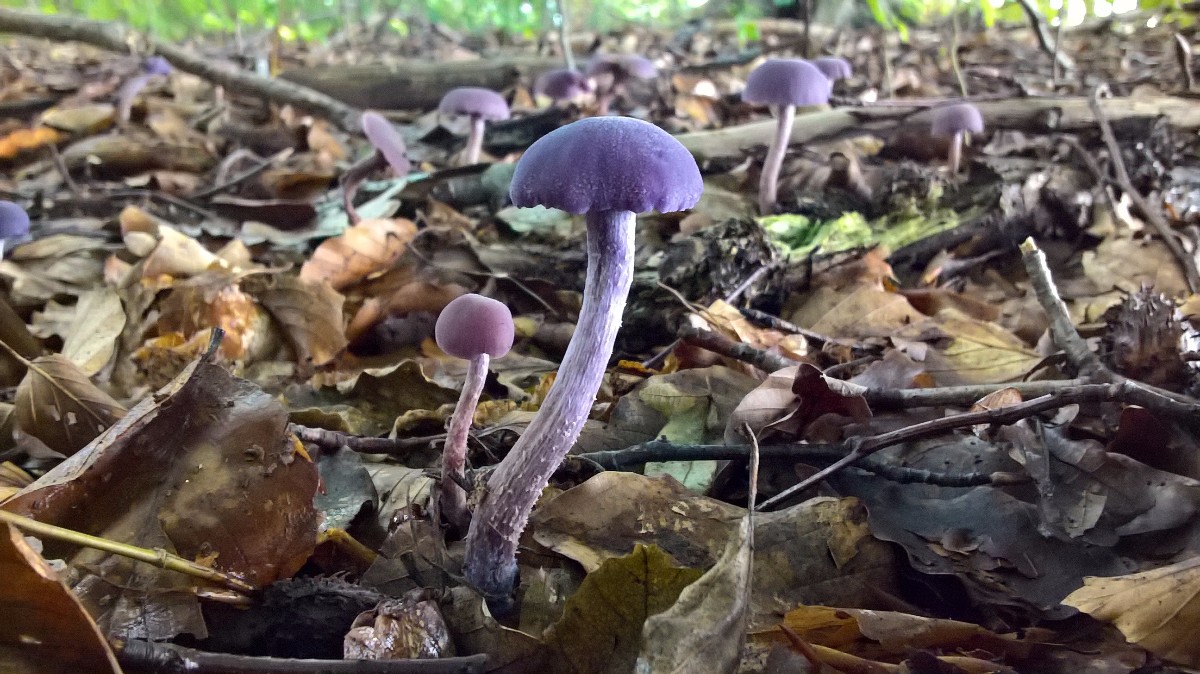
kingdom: Fungi
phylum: Basidiomycota
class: Agaricomycetes
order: Agaricales
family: Hydnangiaceae
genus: Laccaria
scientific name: Laccaria amethystina
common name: violet ametysthat
